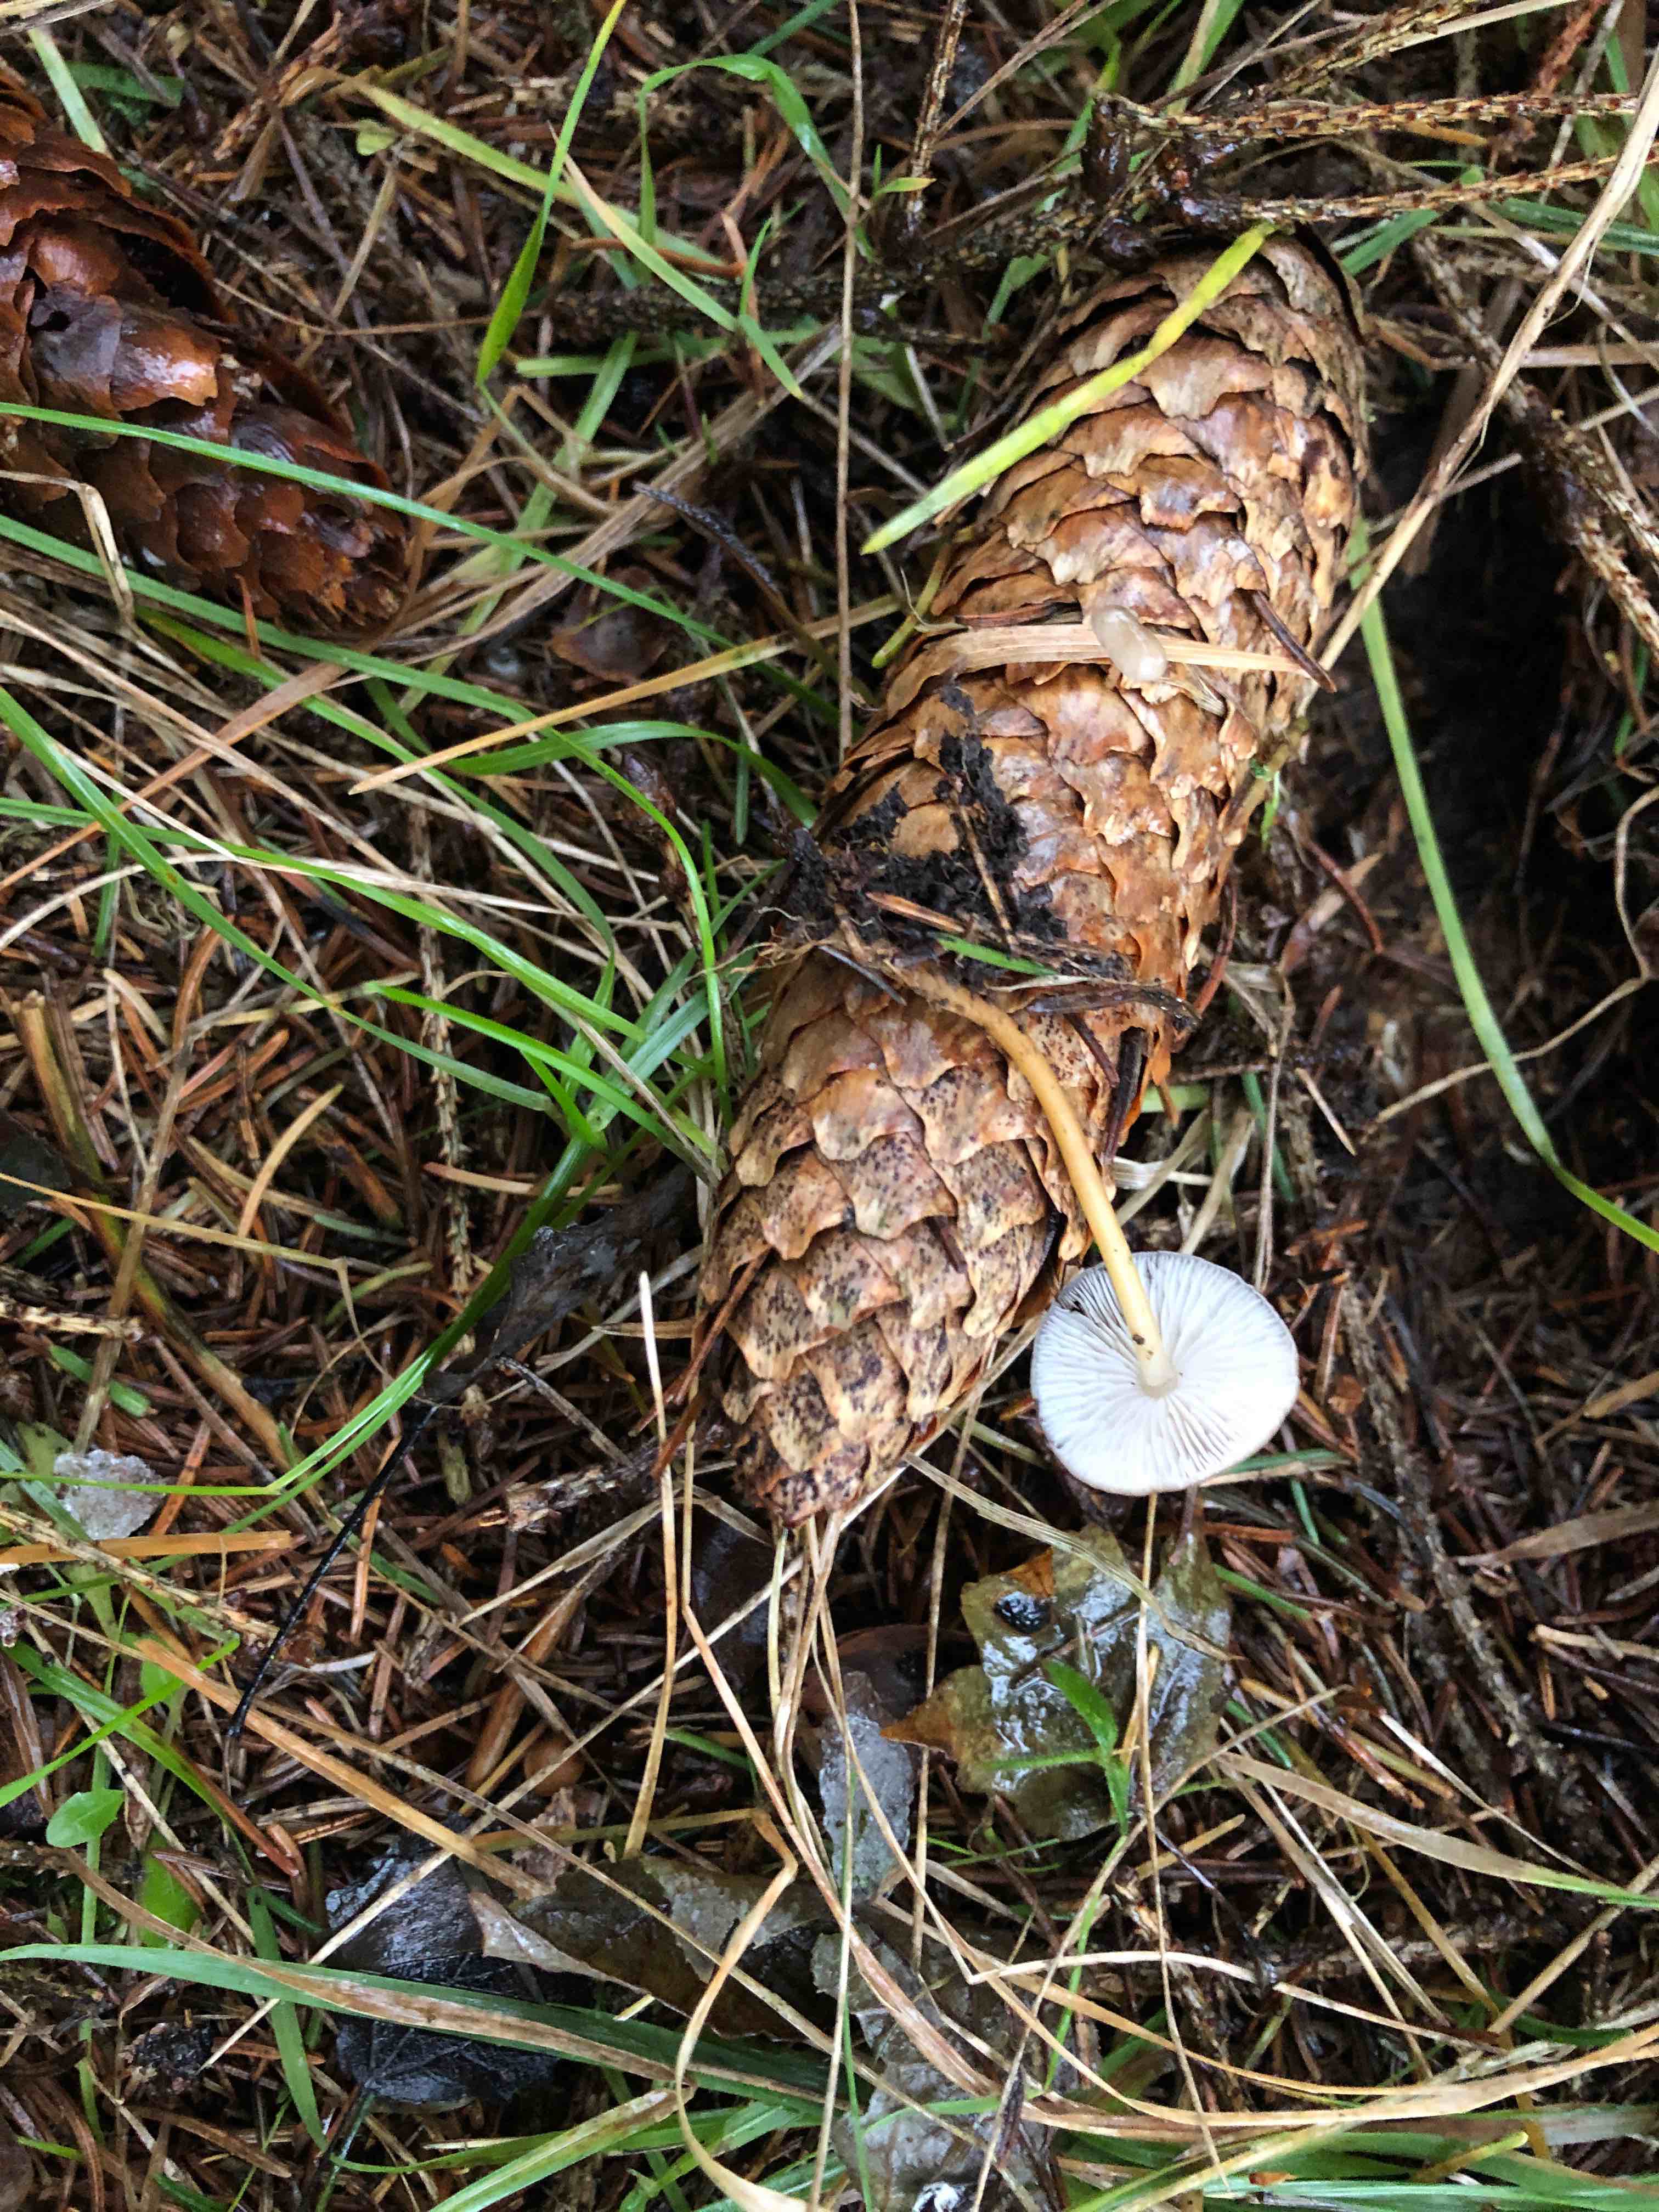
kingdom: Fungi
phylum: Basidiomycota
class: Agaricomycetes
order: Agaricales
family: Physalacriaceae
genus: Strobilurus
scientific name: Strobilurus esculentus
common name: gran-koglehat
